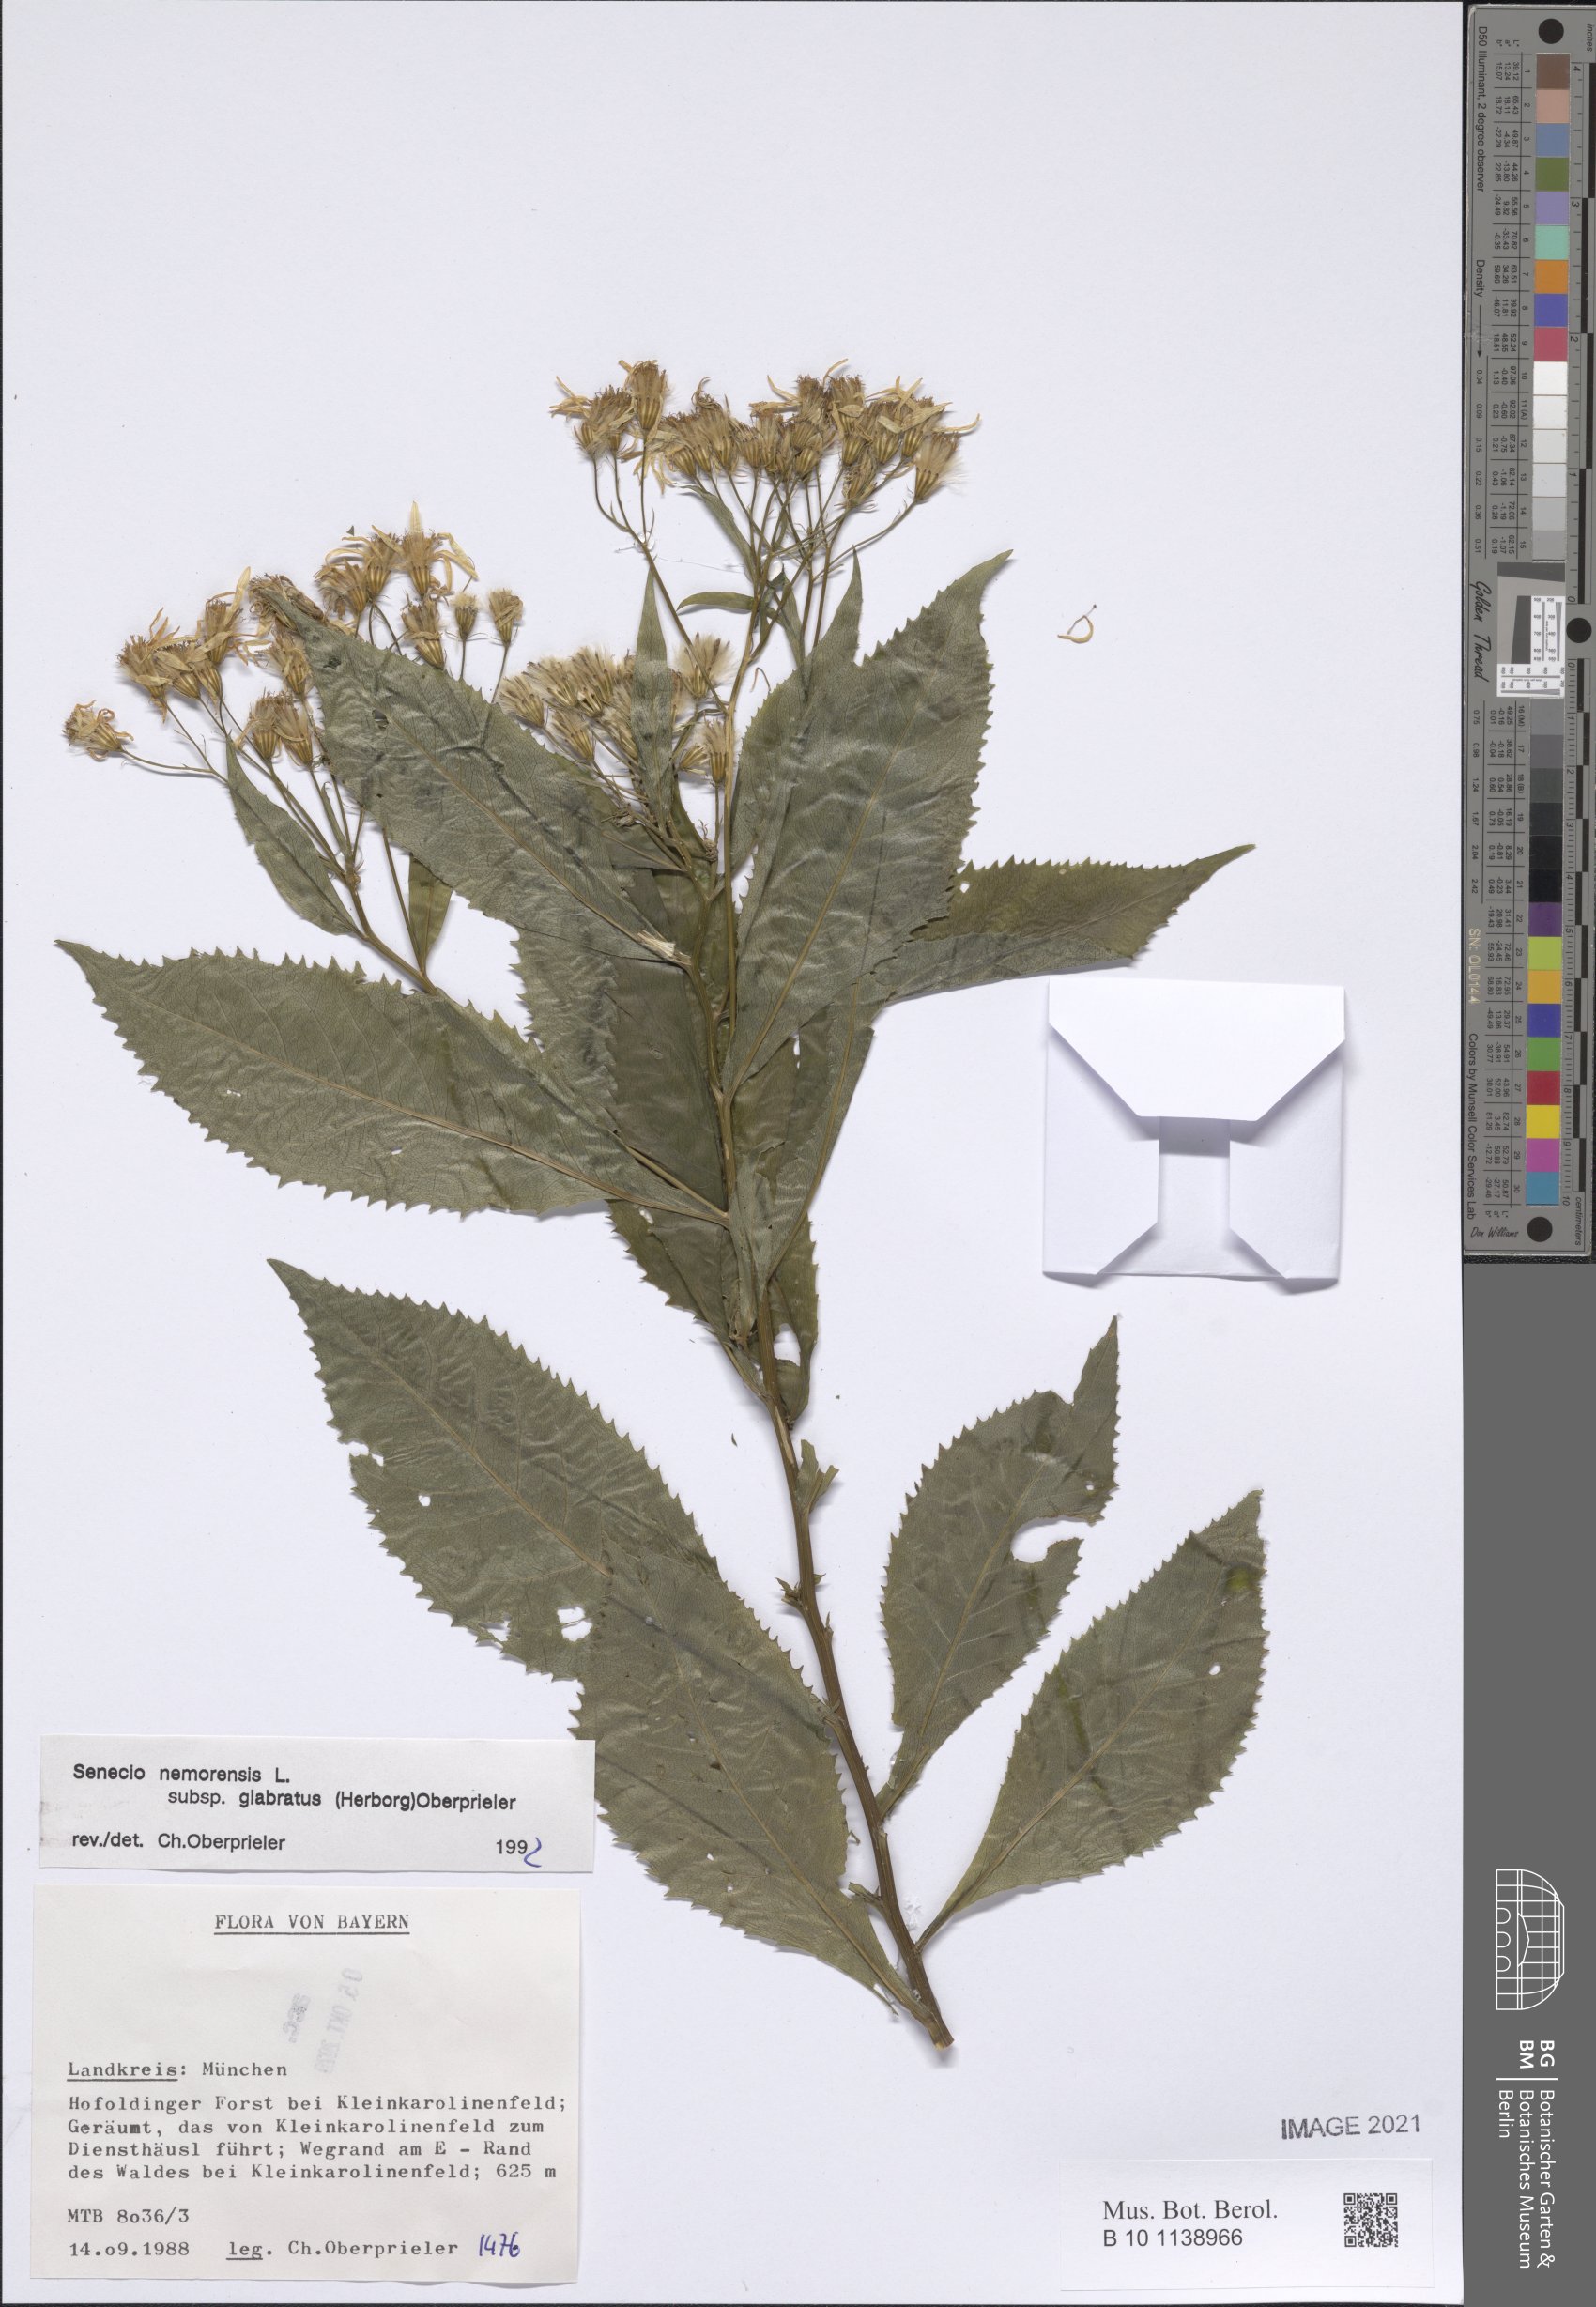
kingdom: Plantae
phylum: Tracheophyta
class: Magnoliopsida
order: Asterales
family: Asteraceae
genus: Senecio
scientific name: Senecio germanicus
